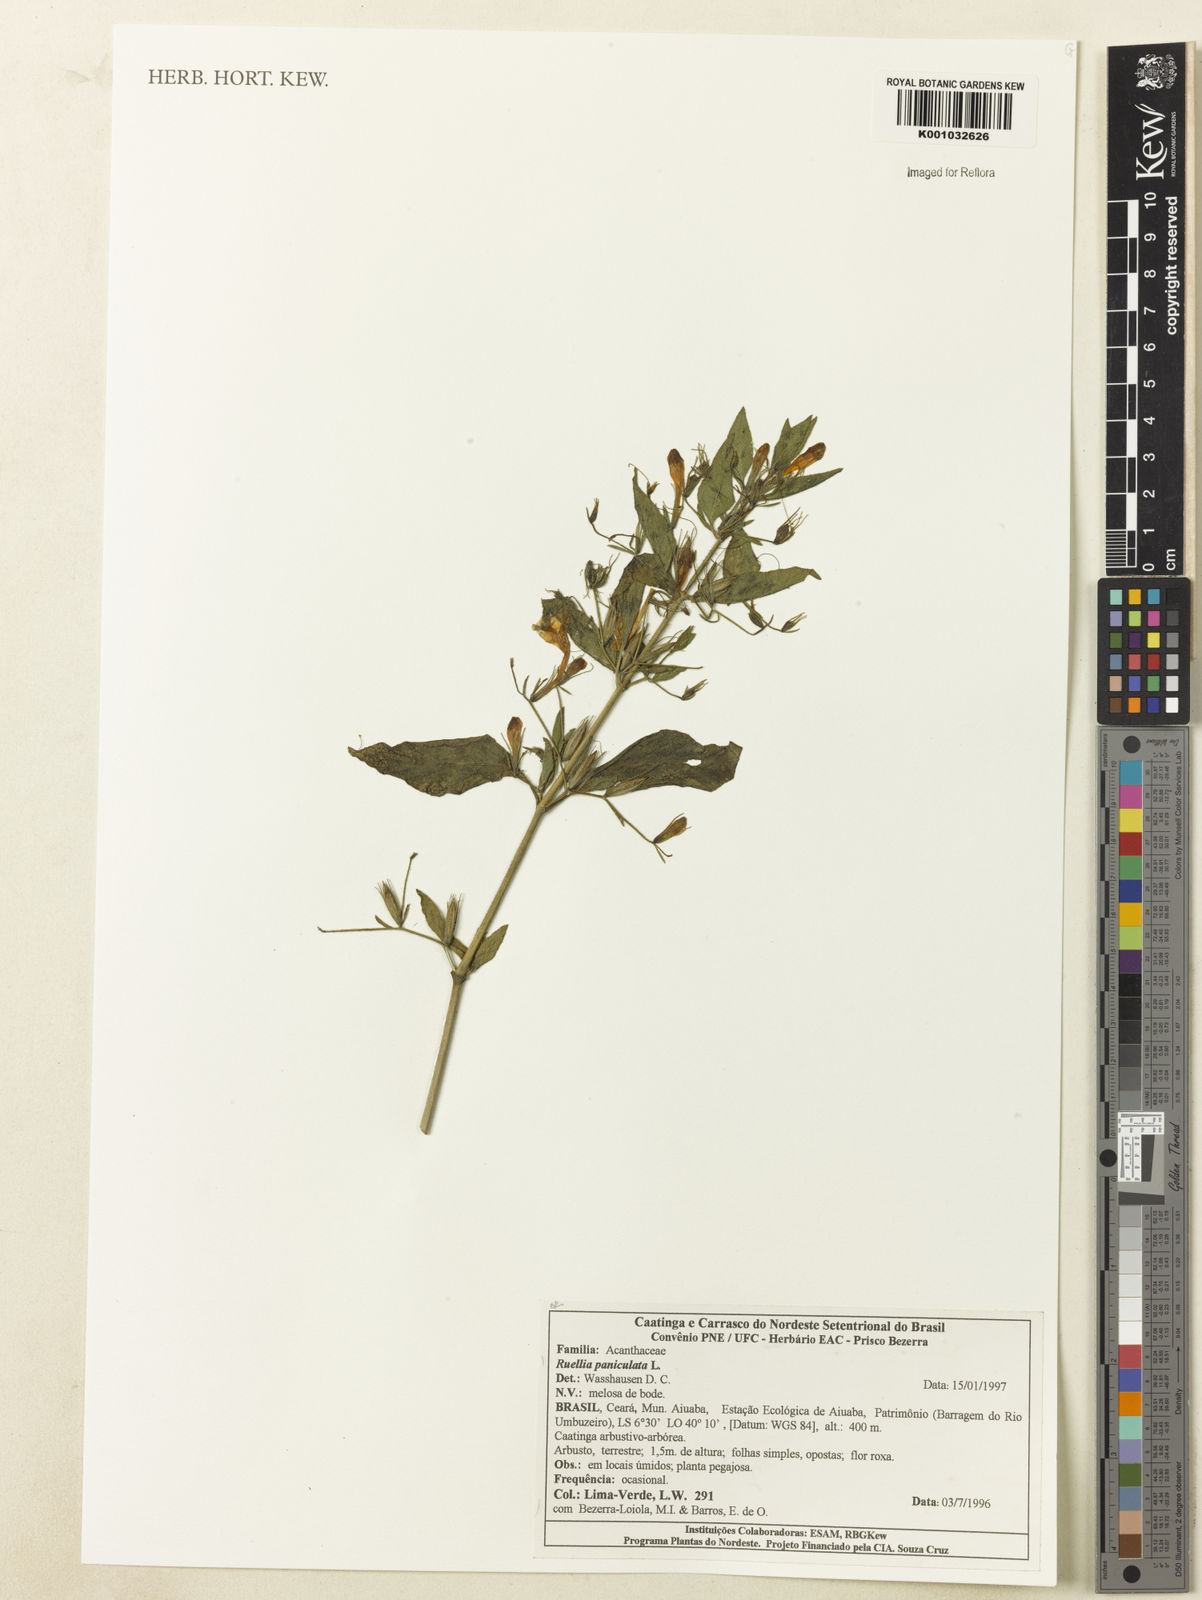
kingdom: Plantae
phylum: Tracheophyta
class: Magnoliopsida
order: Lamiales
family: Acanthaceae
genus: Ruellia
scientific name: Ruellia paniculata
